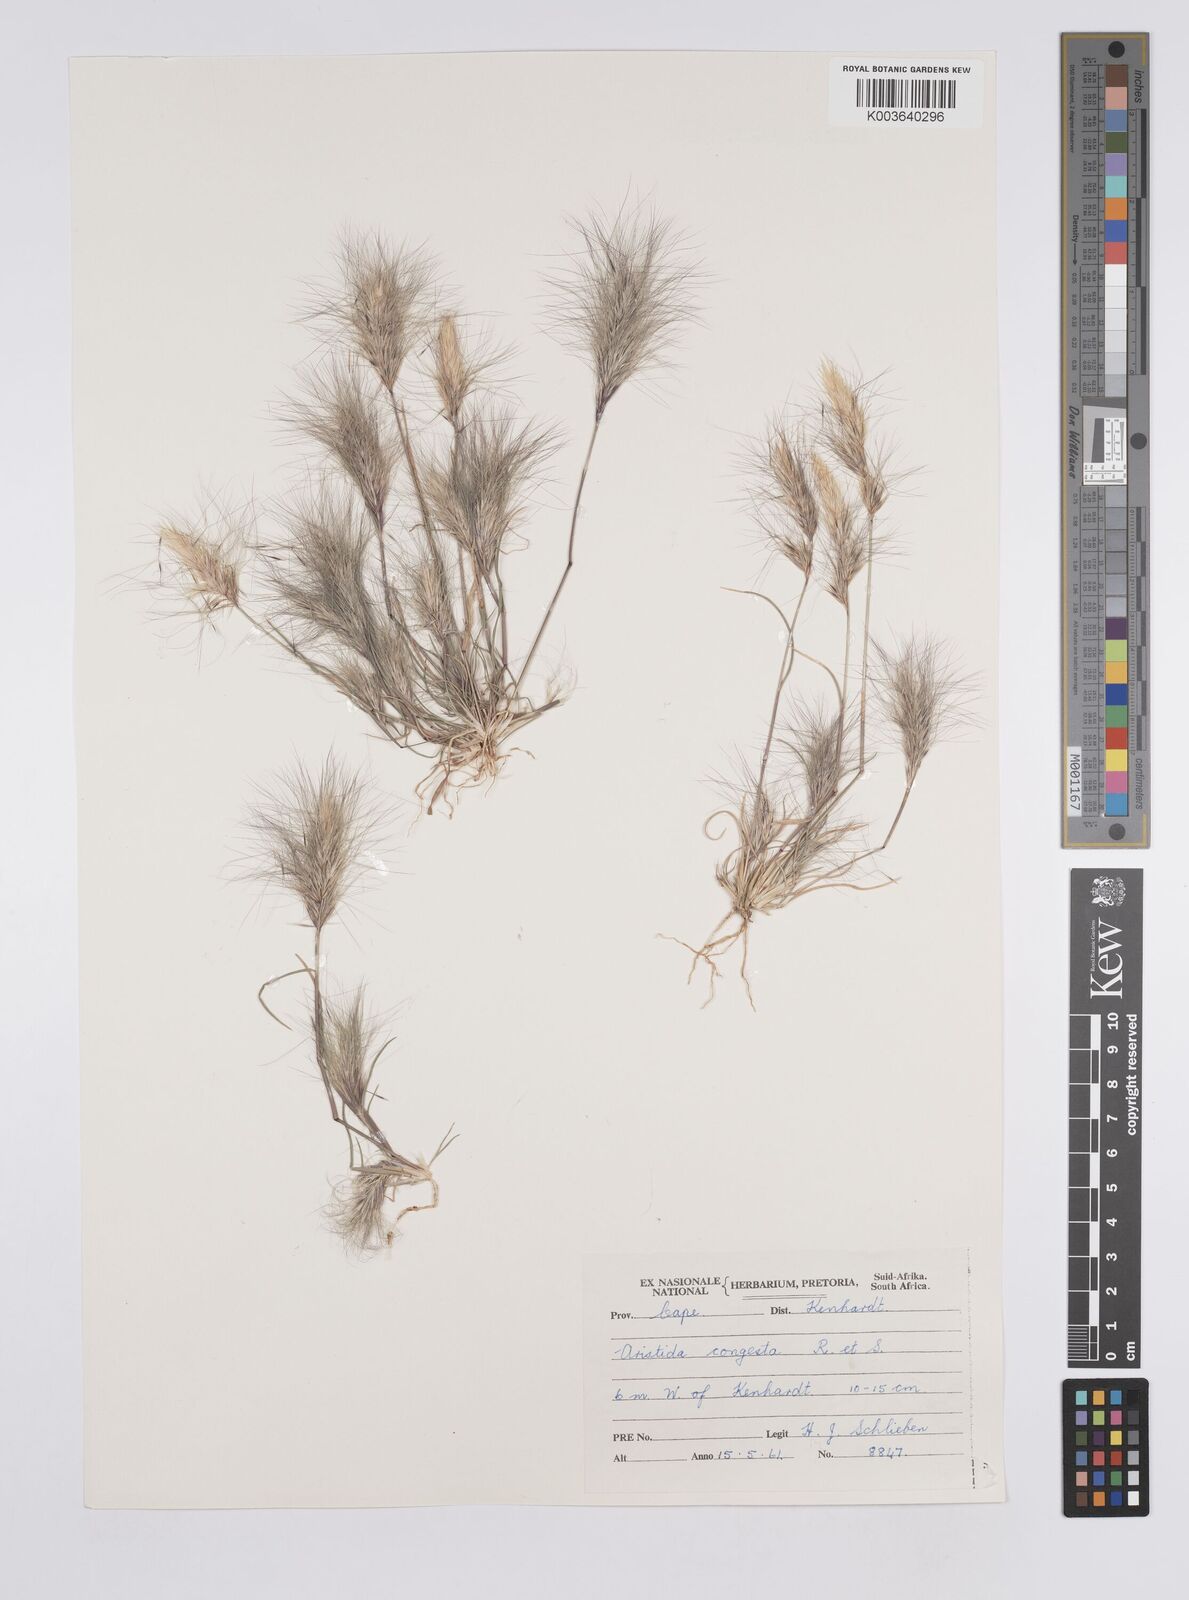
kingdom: Plantae
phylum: Tracheophyta
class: Liliopsida
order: Poales
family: Poaceae
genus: Aristida
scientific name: Aristida congesta
